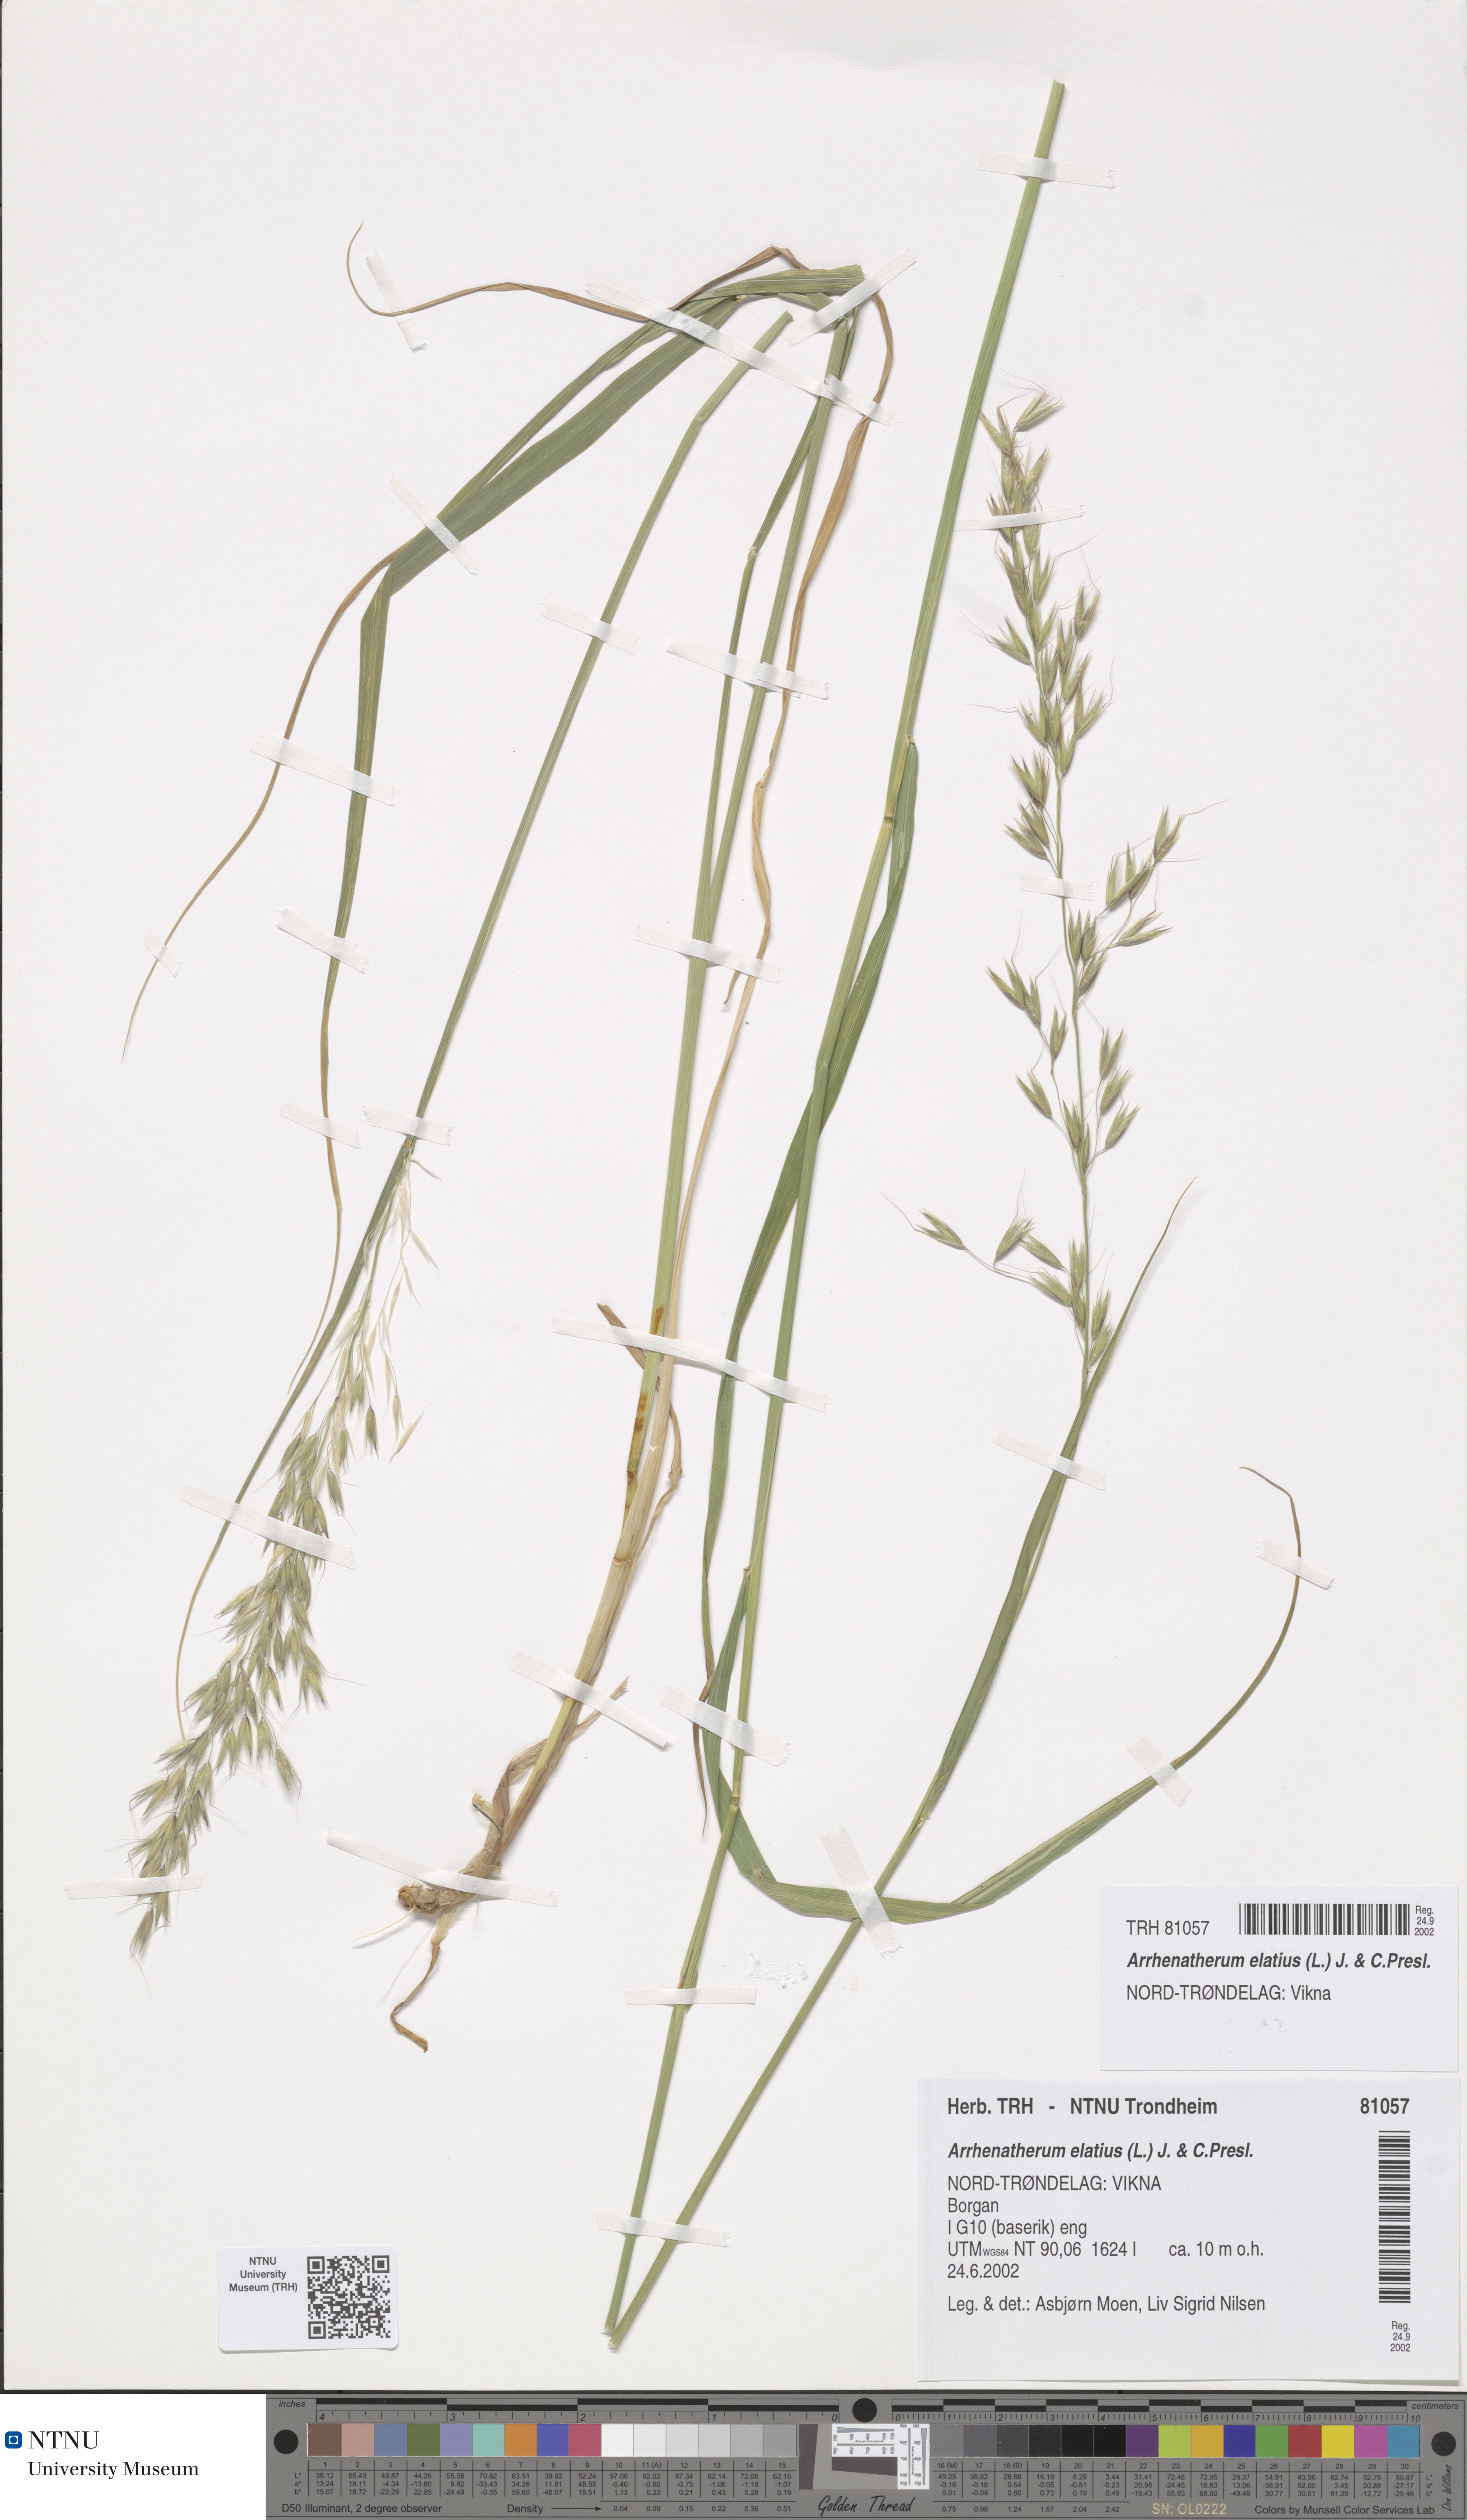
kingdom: Plantae
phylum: Tracheophyta
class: Liliopsida
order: Poales
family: Poaceae
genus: Arrhenatherum
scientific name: Arrhenatherum elatius
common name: Tall oatgrass
